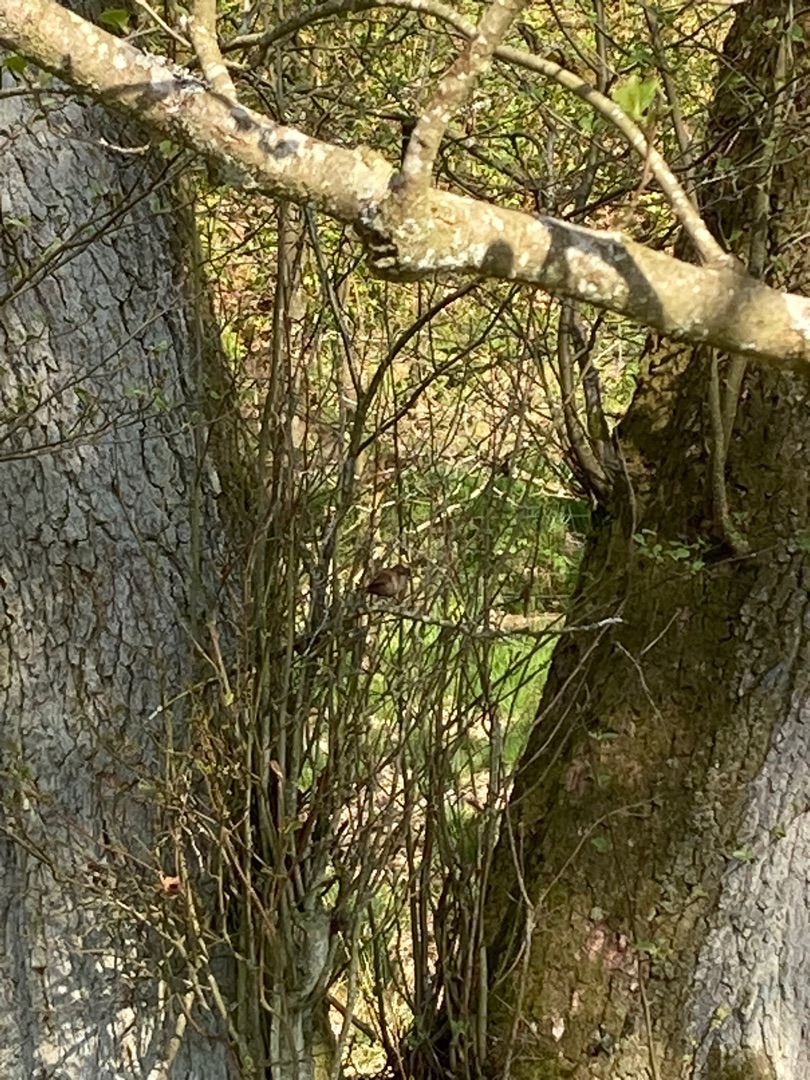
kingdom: Animalia
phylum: Chordata
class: Aves
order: Passeriformes
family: Troglodytidae
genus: Troglodytes
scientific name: Troglodytes troglodytes
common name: Gærdesmutte
